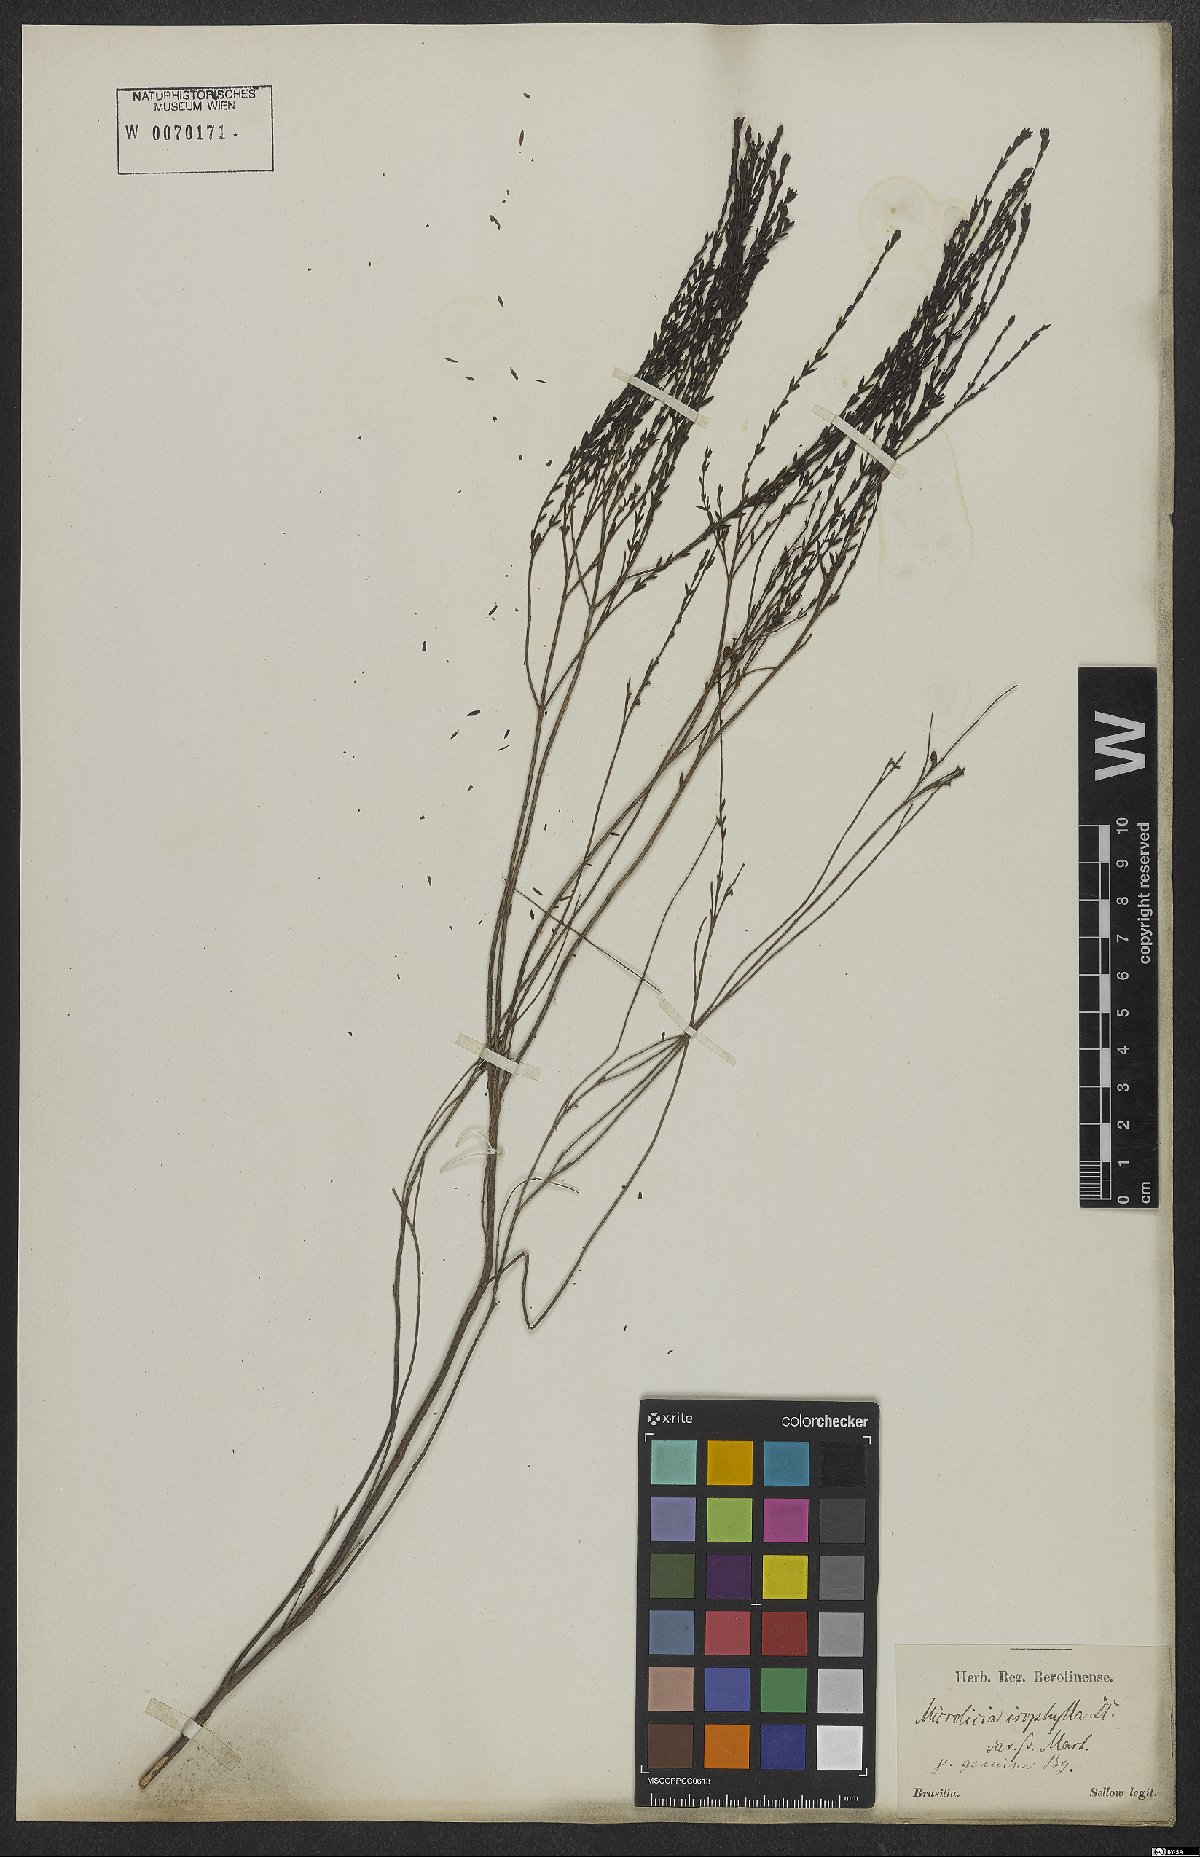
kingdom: Plantae
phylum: Tracheophyta
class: Magnoliopsida
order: Myrtales
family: Melastomataceae
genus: Microlicia
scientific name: Microlicia isophylla
